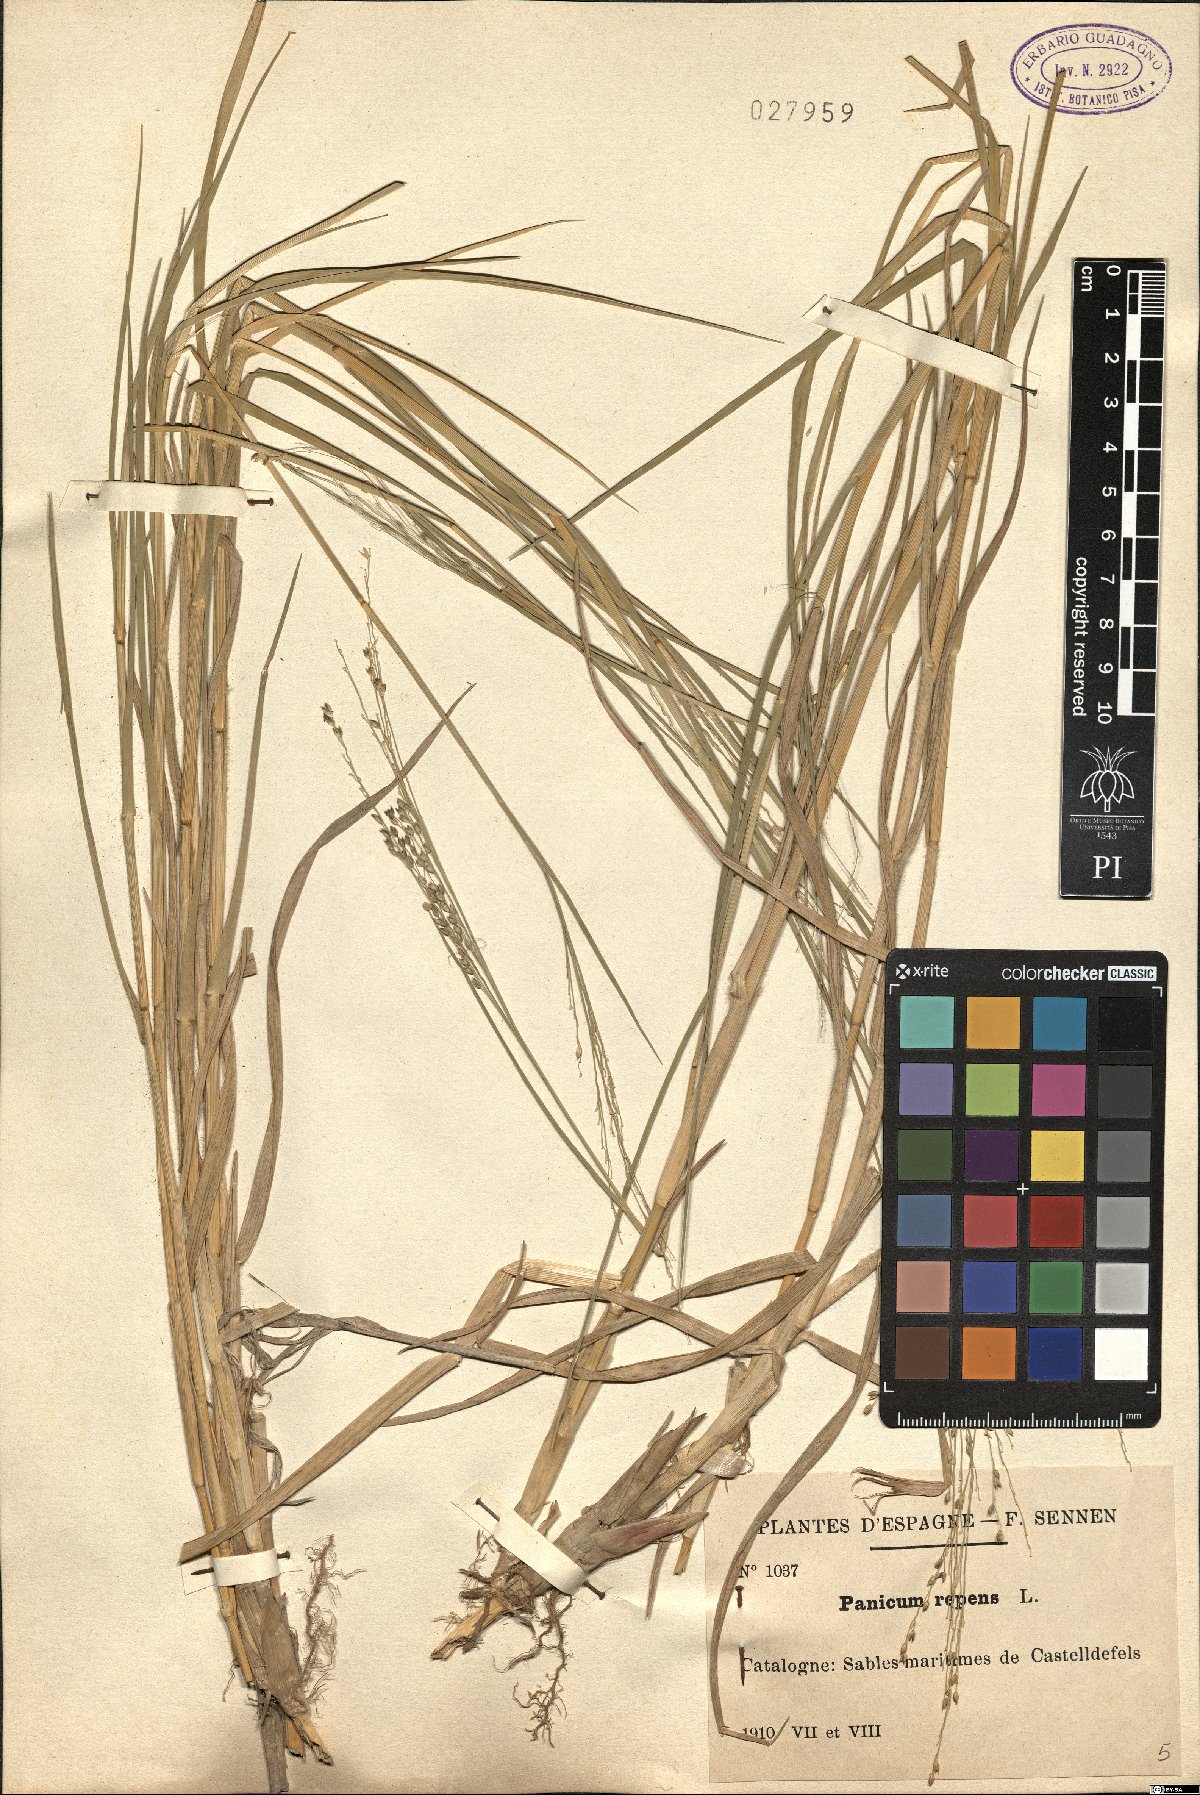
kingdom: Plantae
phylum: Tracheophyta
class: Liliopsida
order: Poales
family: Poaceae
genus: Panicum
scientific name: Panicum repens
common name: Torpedo grass
